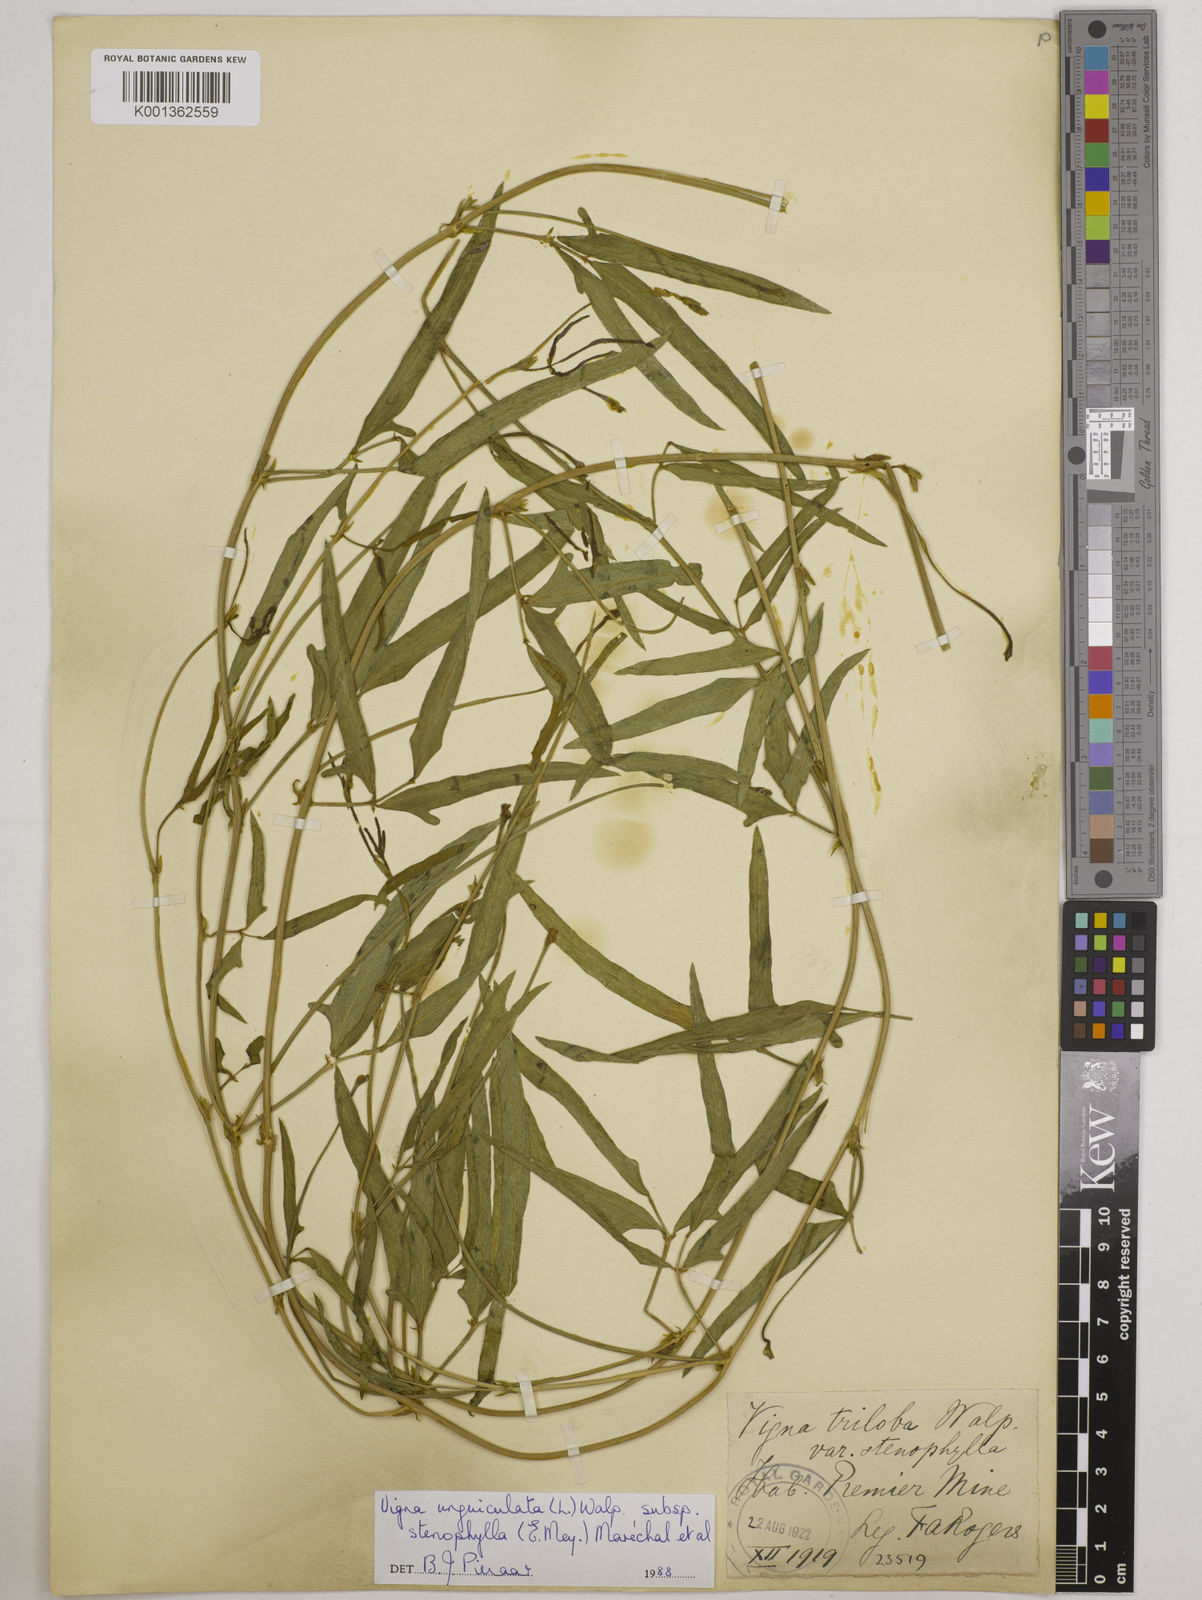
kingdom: Plantae
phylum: Tracheophyta
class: Magnoliopsida
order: Fabales
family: Fabaceae
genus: Vigna
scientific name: Vigna
